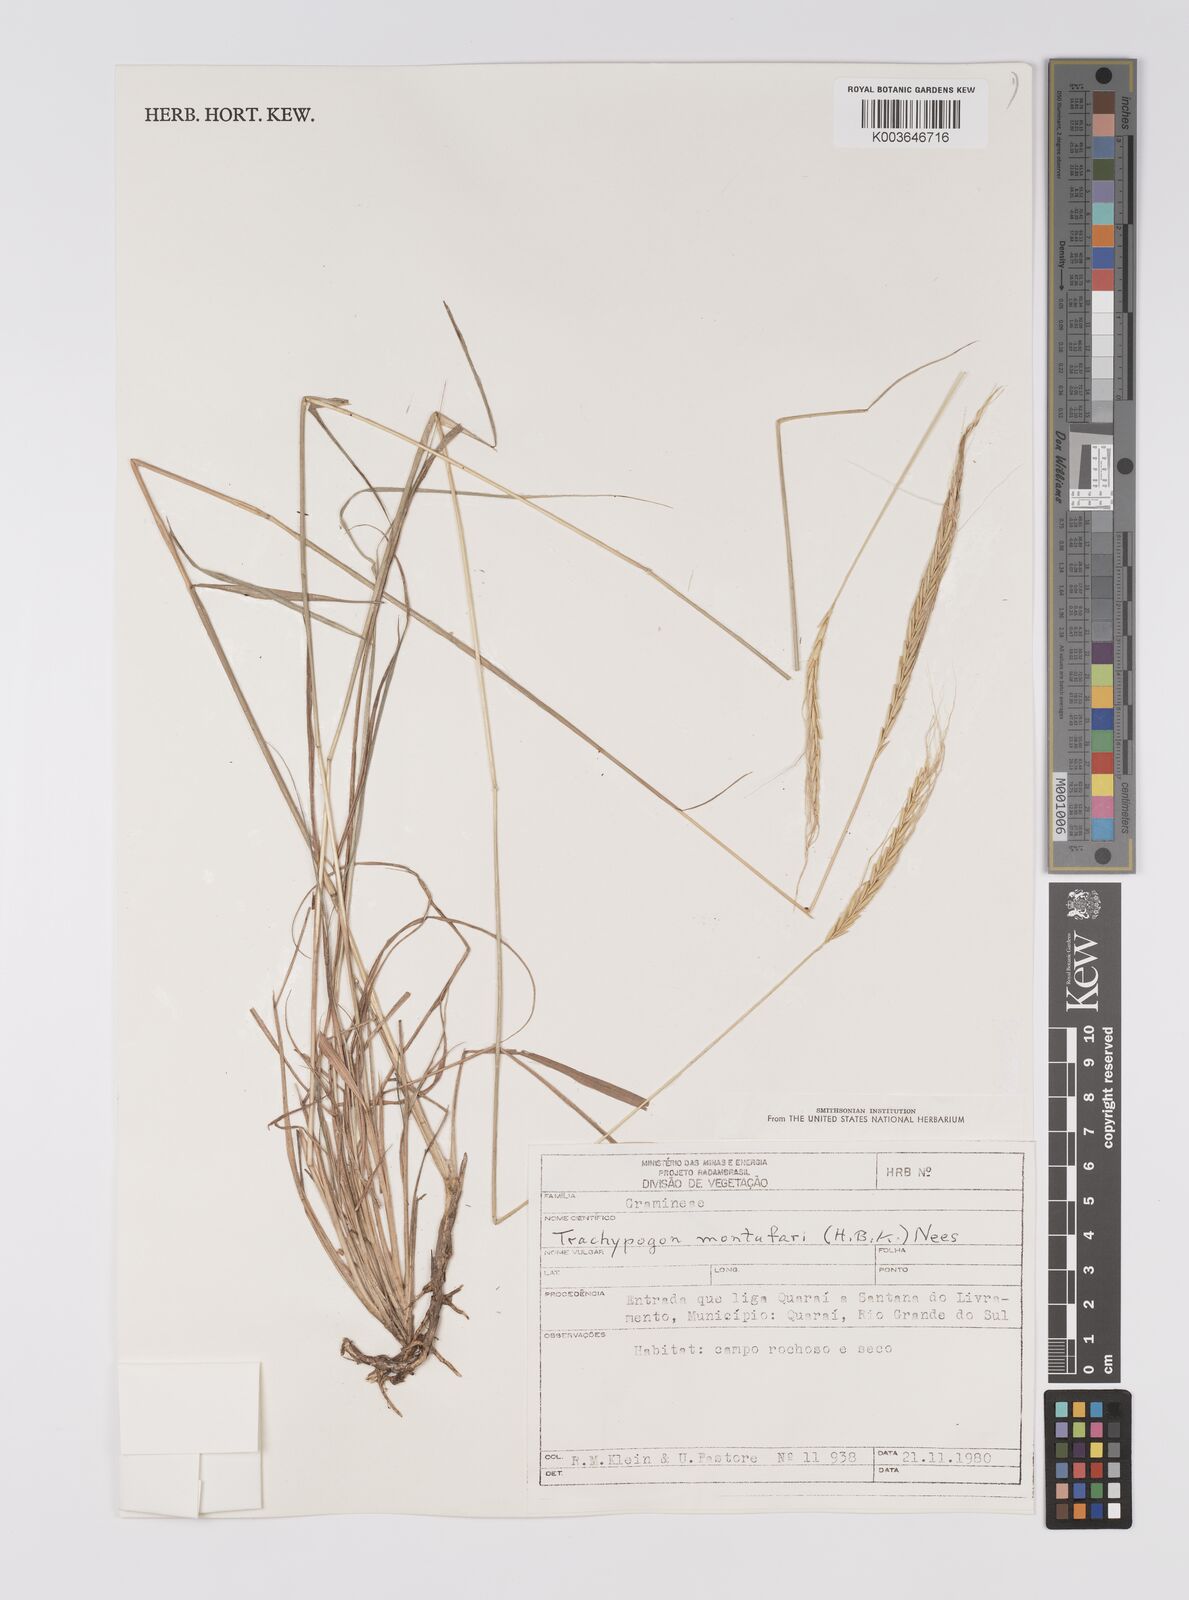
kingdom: Plantae
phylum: Tracheophyta
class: Liliopsida
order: Poales
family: Poaceae
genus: Trachypogon
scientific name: Trachypogon
